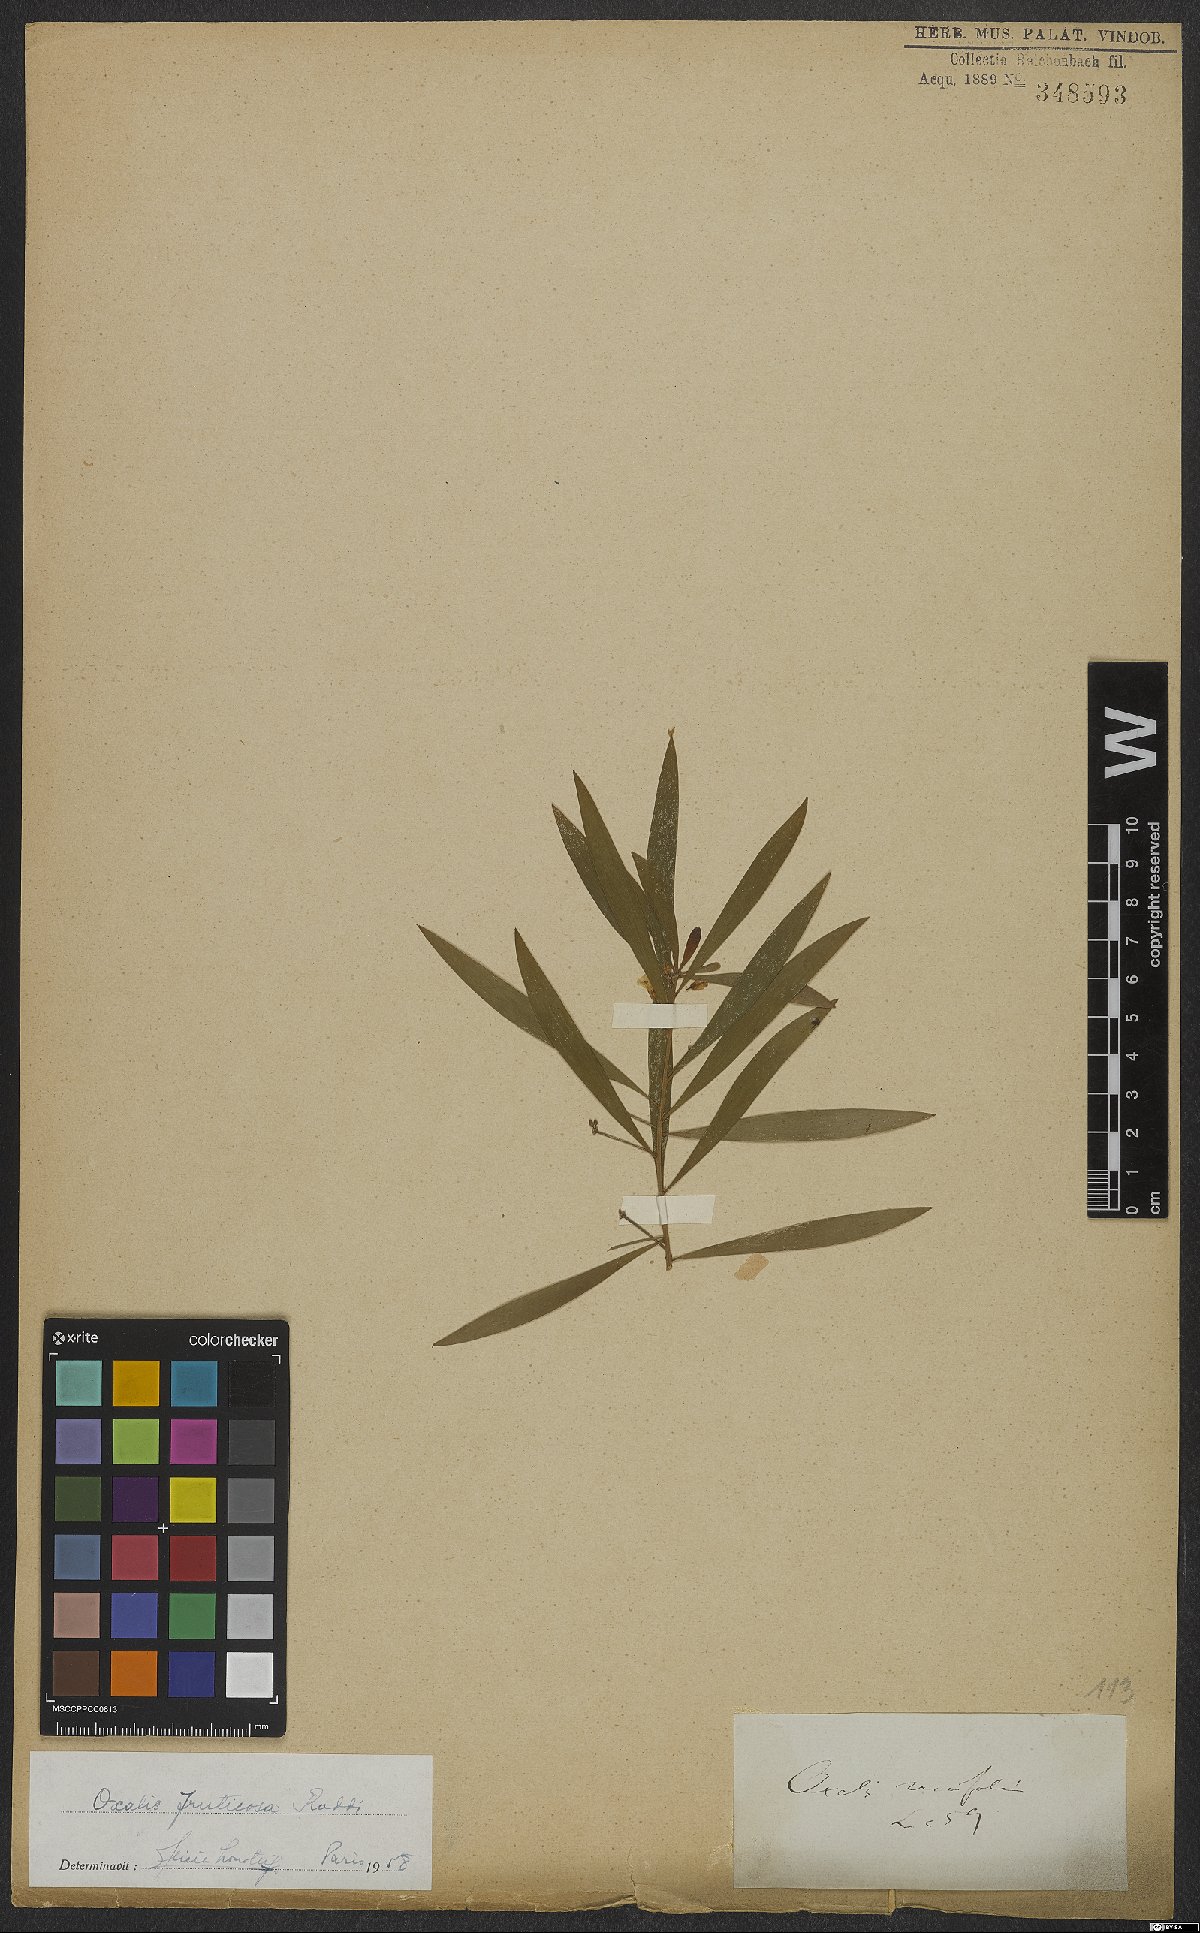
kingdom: Plantae
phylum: Tracheophyta
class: Magnoliopsida
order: Oxalidales
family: Oxalidaceae
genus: Oxalis
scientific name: Oxalis fruticosa
